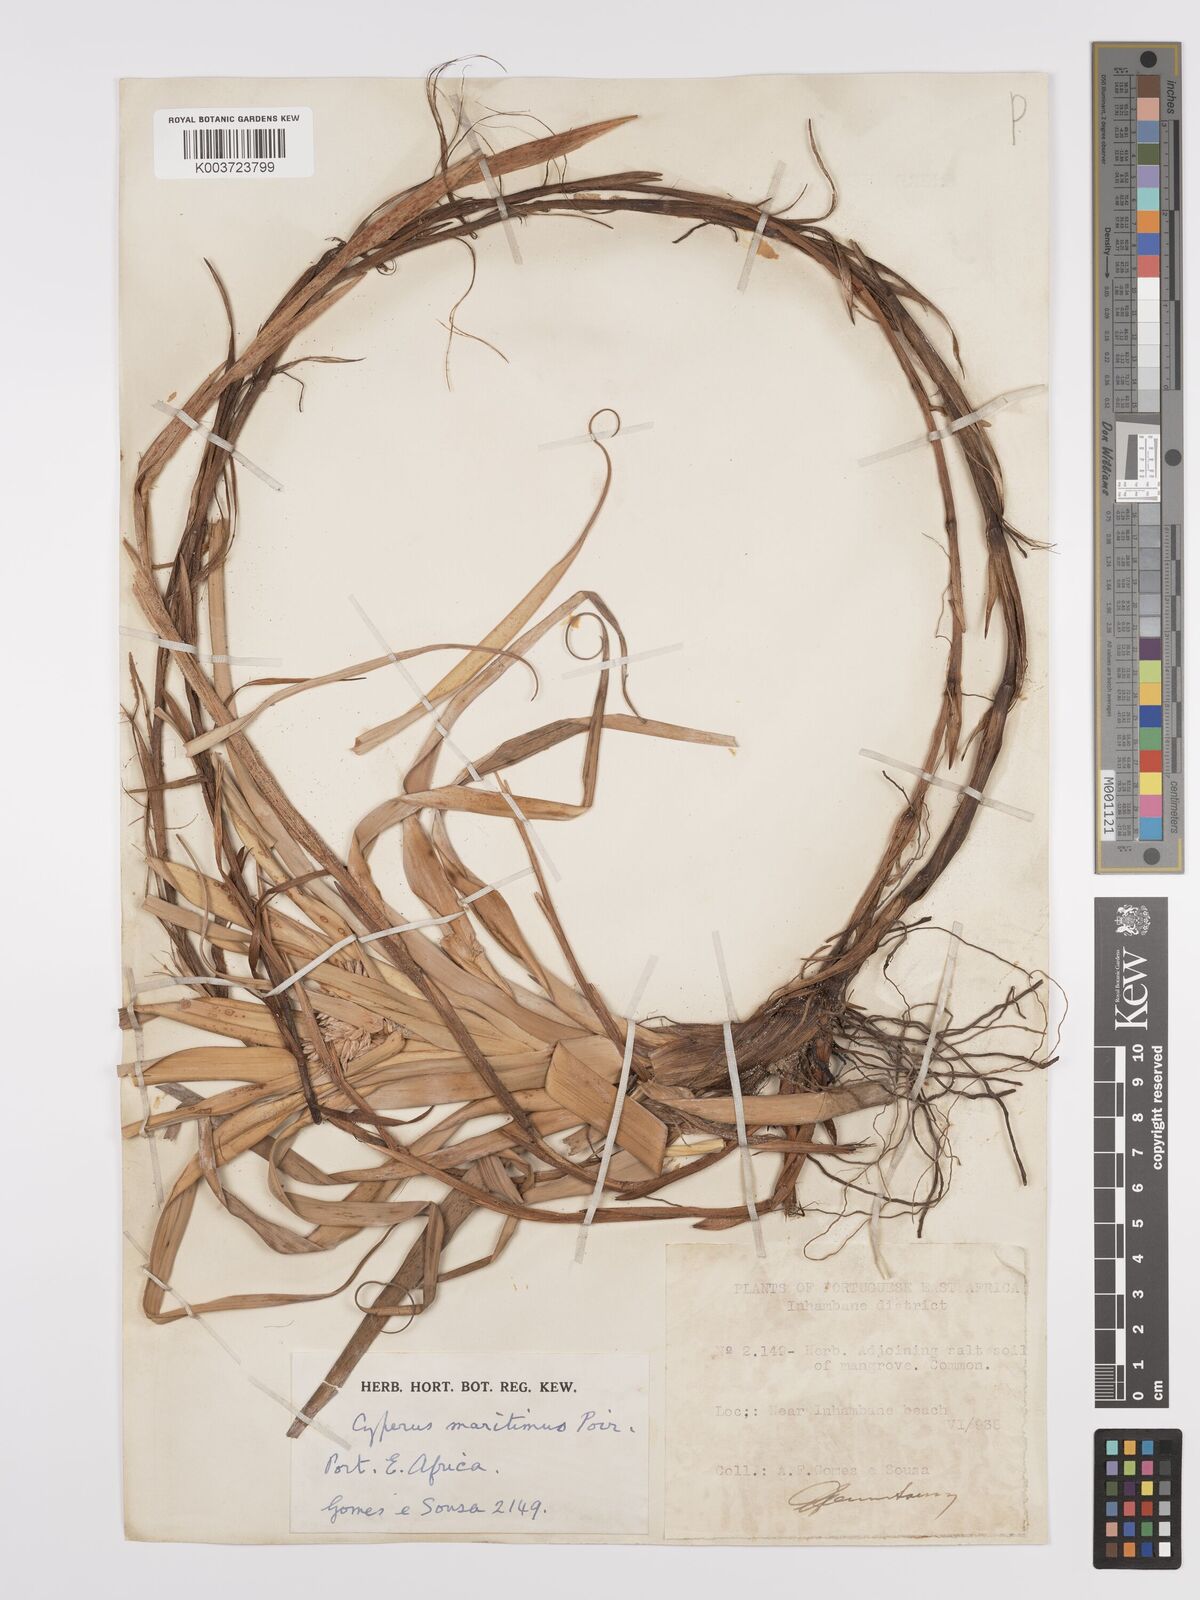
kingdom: Plantae
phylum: Tracheophyta
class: Liliopsida
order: Poales
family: Cyperaceae
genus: Cyperus
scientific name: Cyperus crassipes
